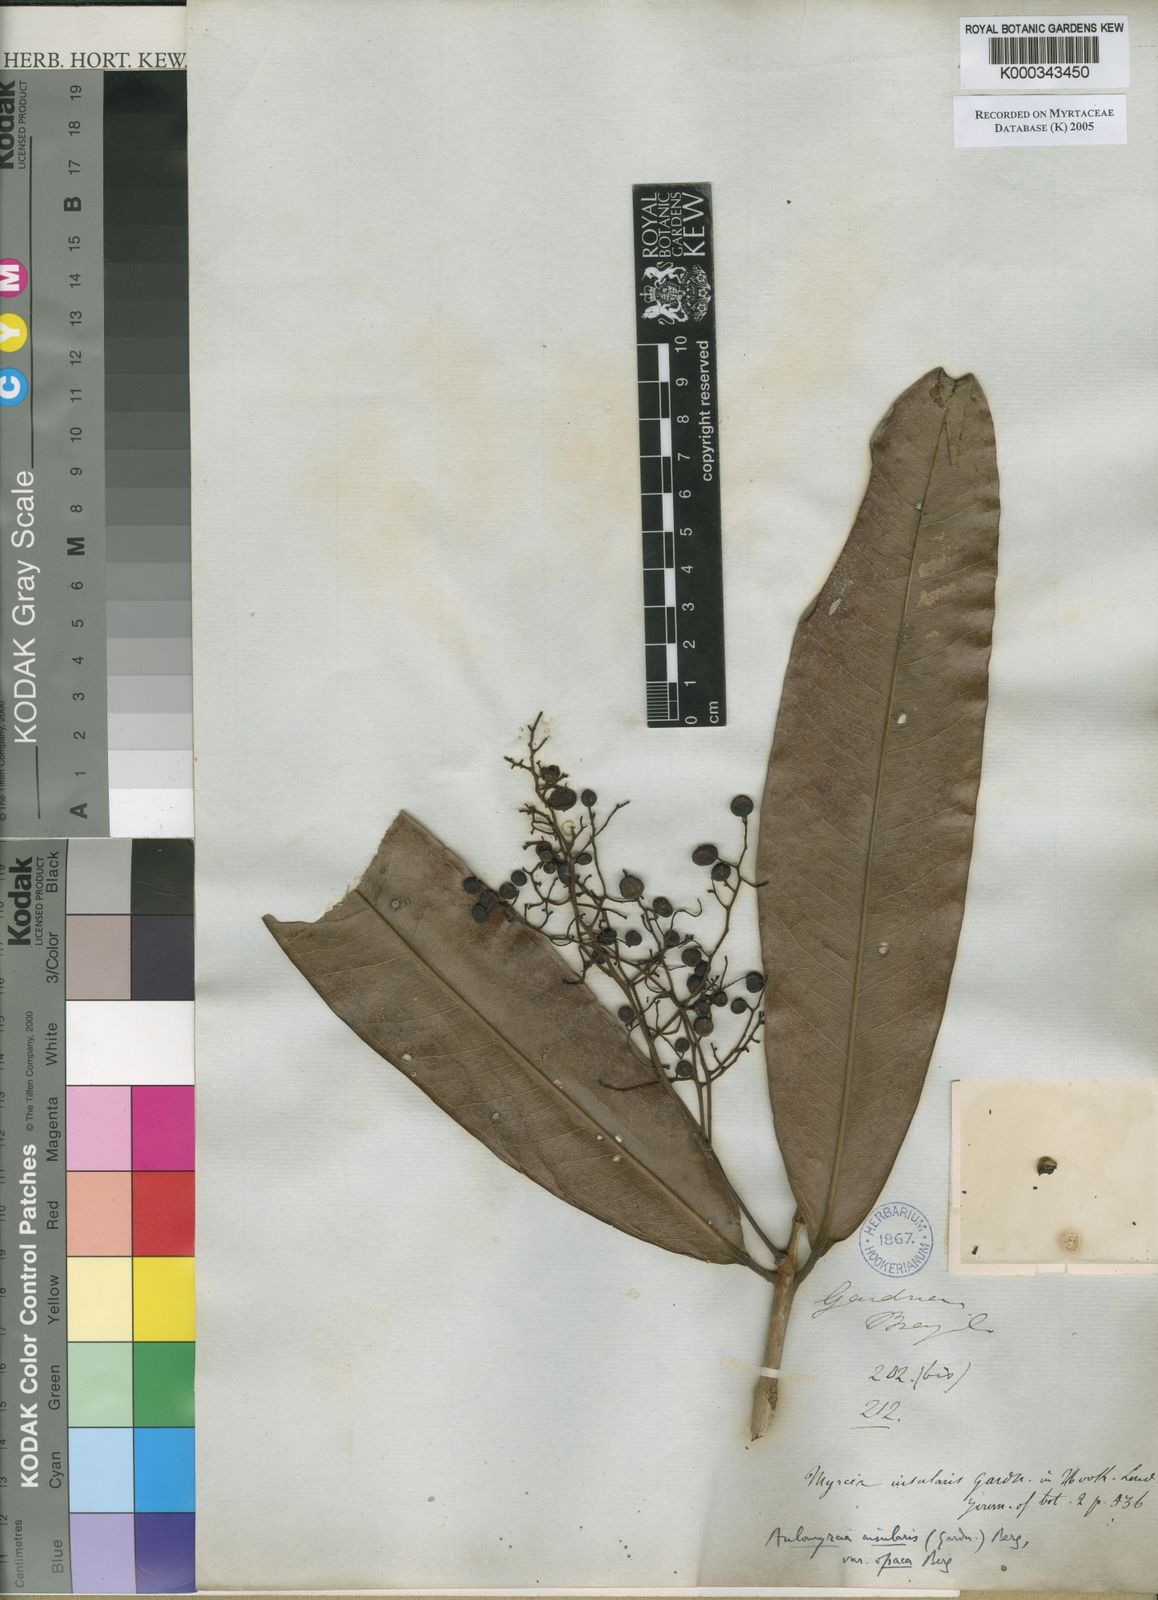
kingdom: Plantae
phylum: Tracheophyta
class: Magnoliopsida
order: Myrtales
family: Myrtaceae
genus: Myrcia
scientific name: Myrcia insularis
